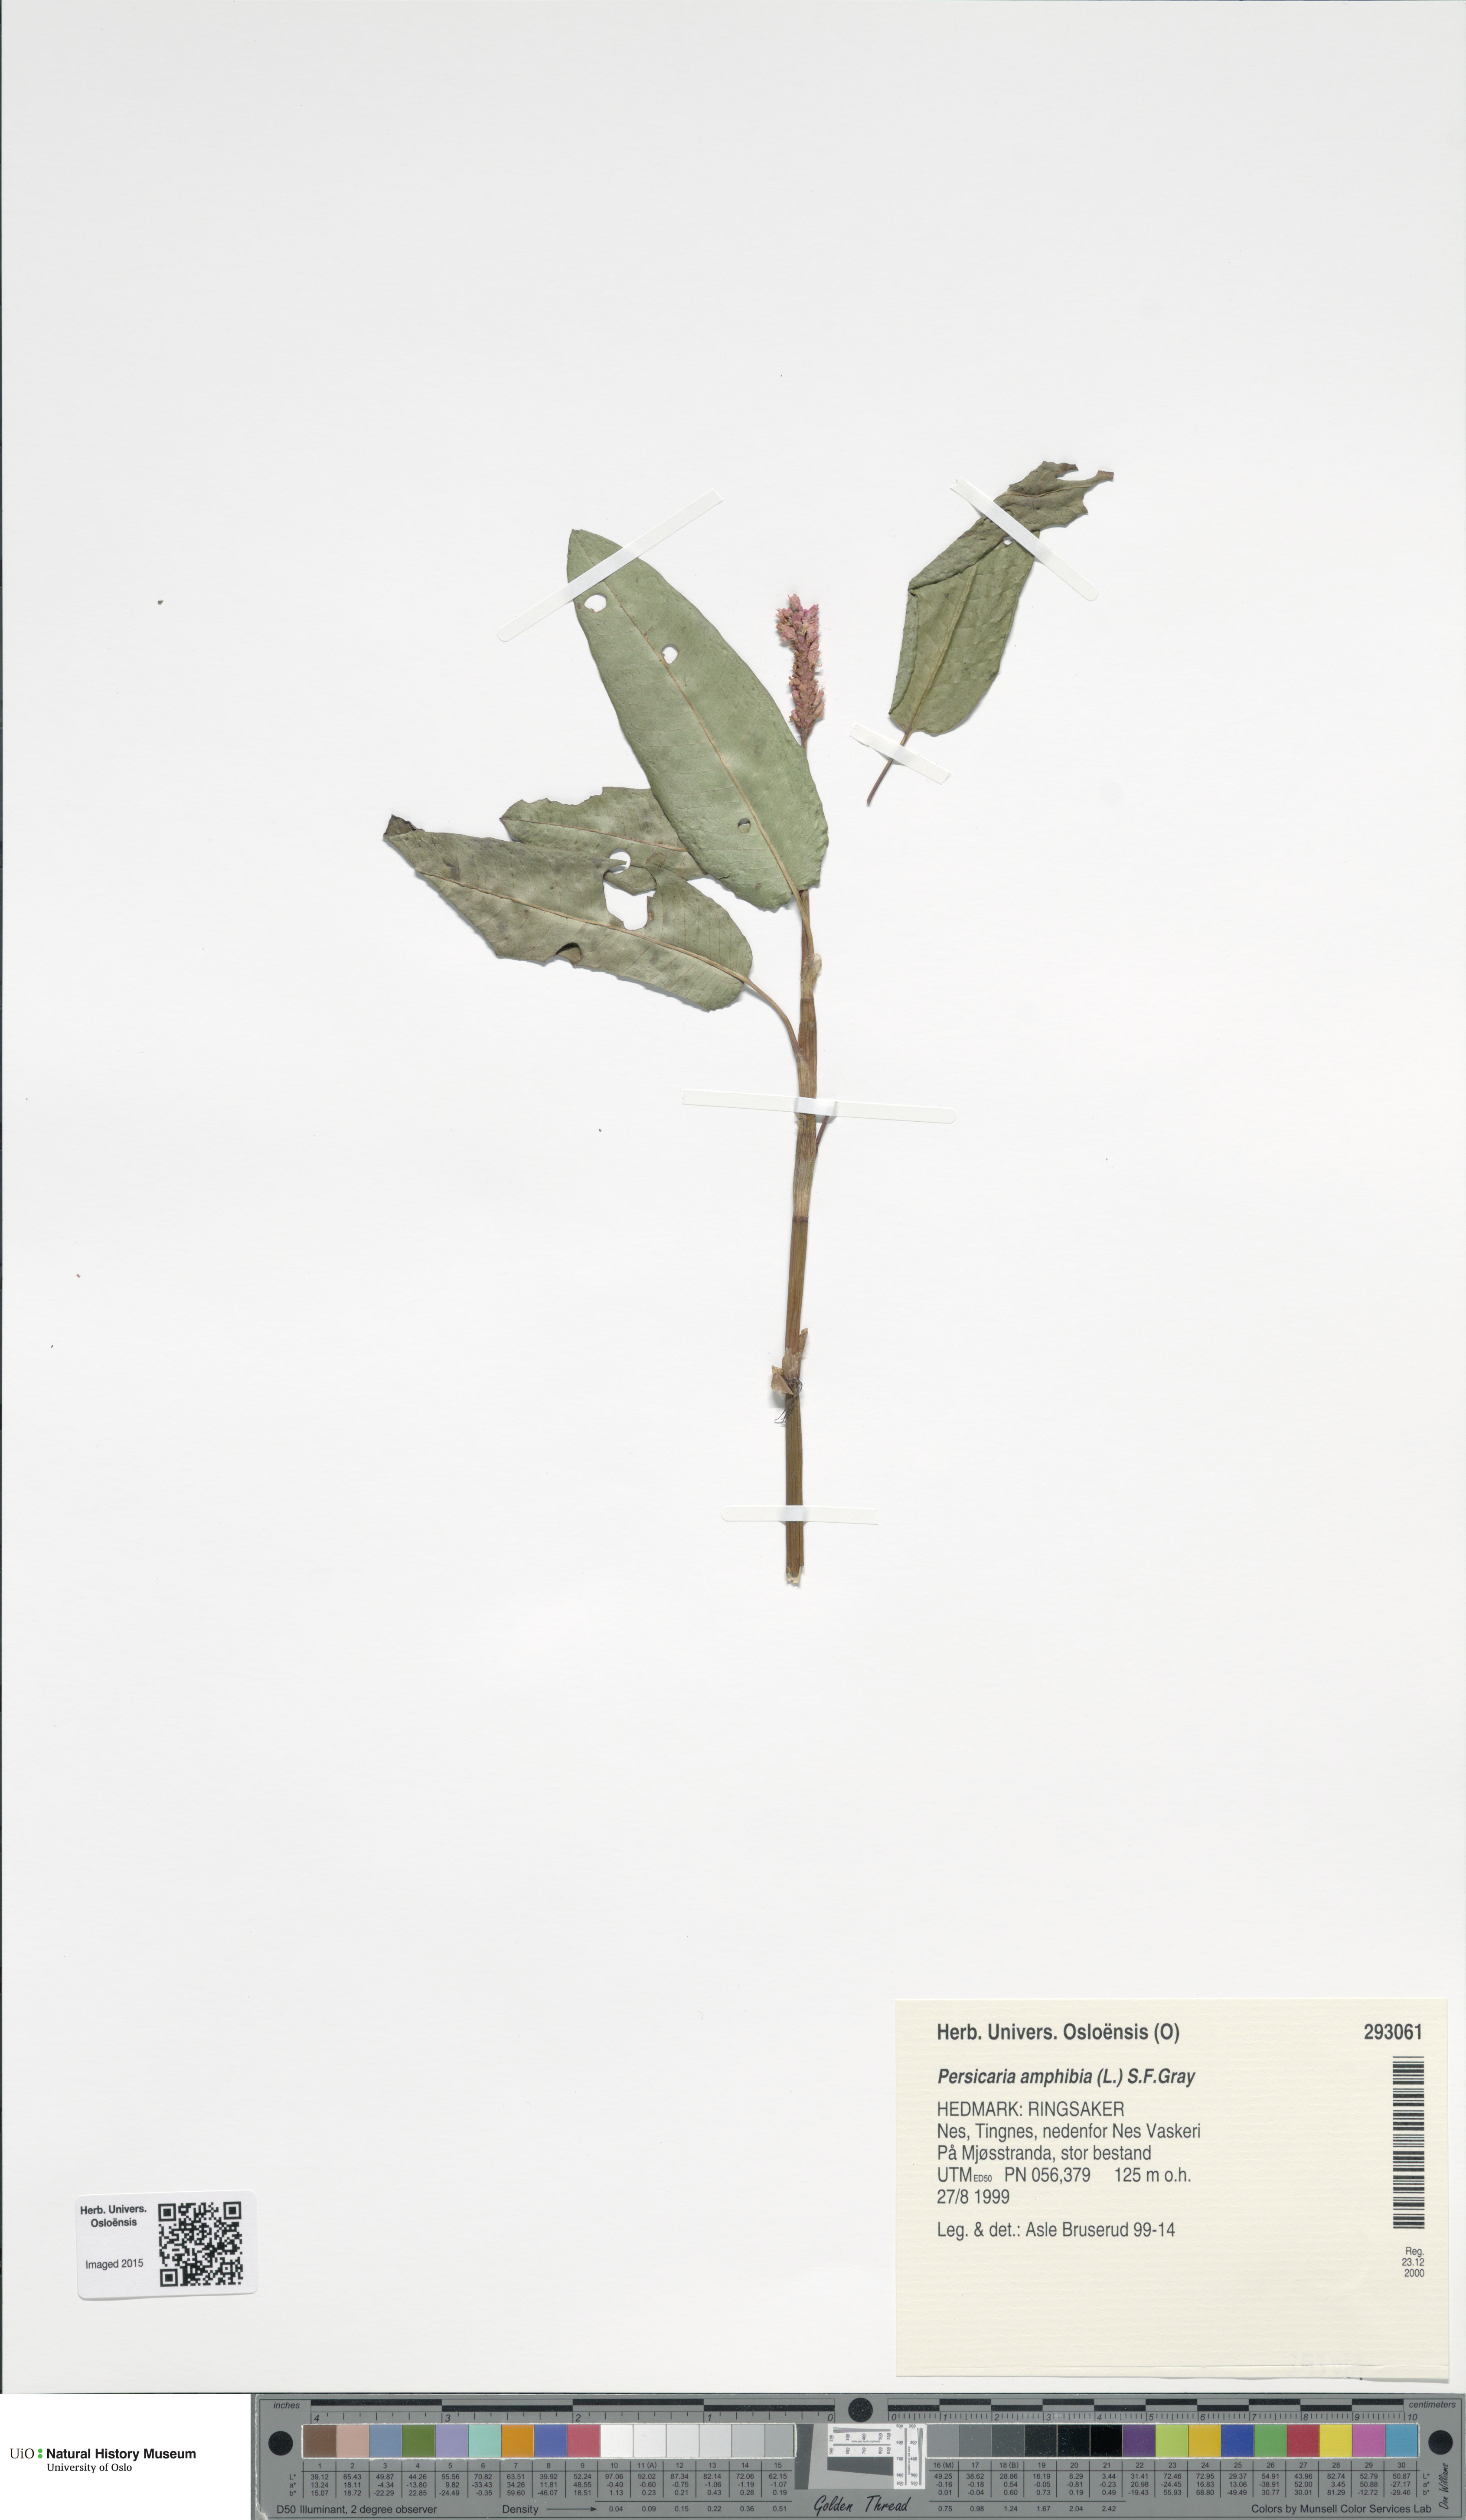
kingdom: Plantae
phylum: Tracheophyta
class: Magnoliopsida
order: Caryophyllales
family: Polygonaceae
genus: Persicaria
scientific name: Persicaria amphibia
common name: Amphibious bistort
